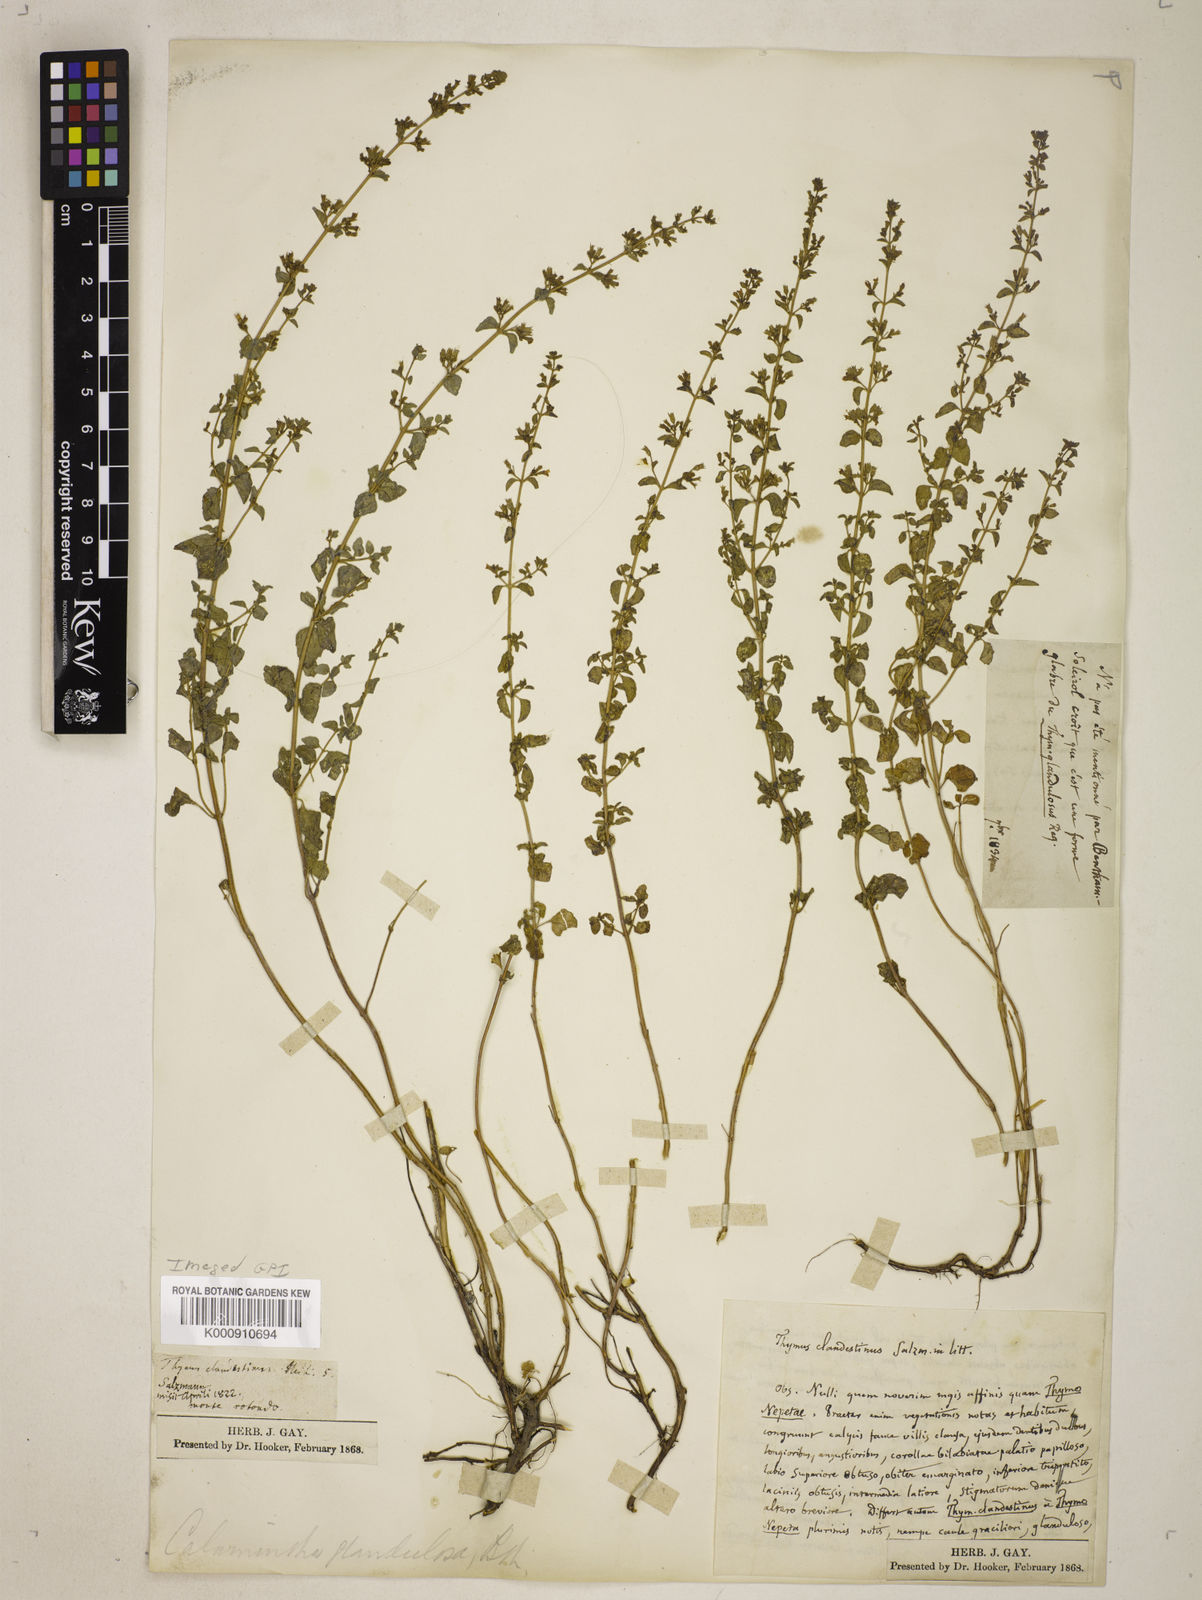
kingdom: Plantae
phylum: Tracheophyta
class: Magnoliopsida
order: Lamiales
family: Lamiaceae
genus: Clinopodium
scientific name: Clinopodium
